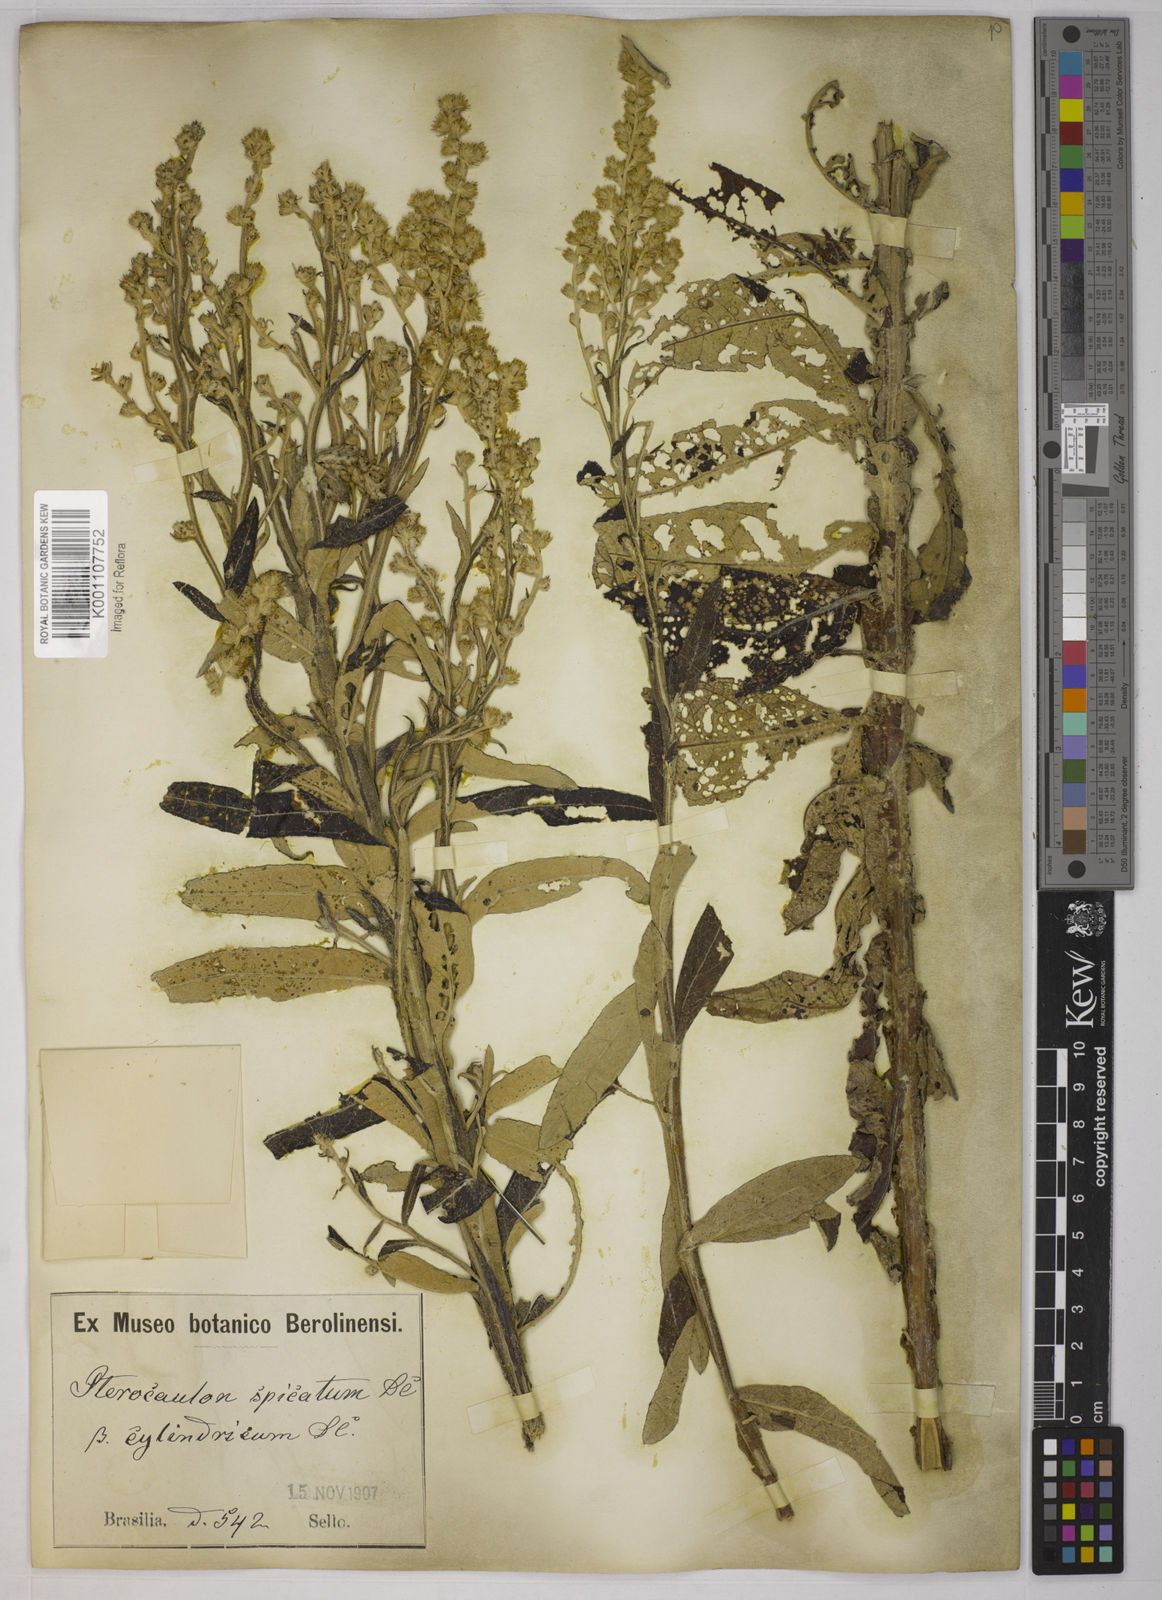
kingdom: Plantae
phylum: Tracheophyta
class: Magnoliopsida
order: Asterales
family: Asteraceae
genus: Pterocaulon
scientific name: Pterocaulon alopecuroides
